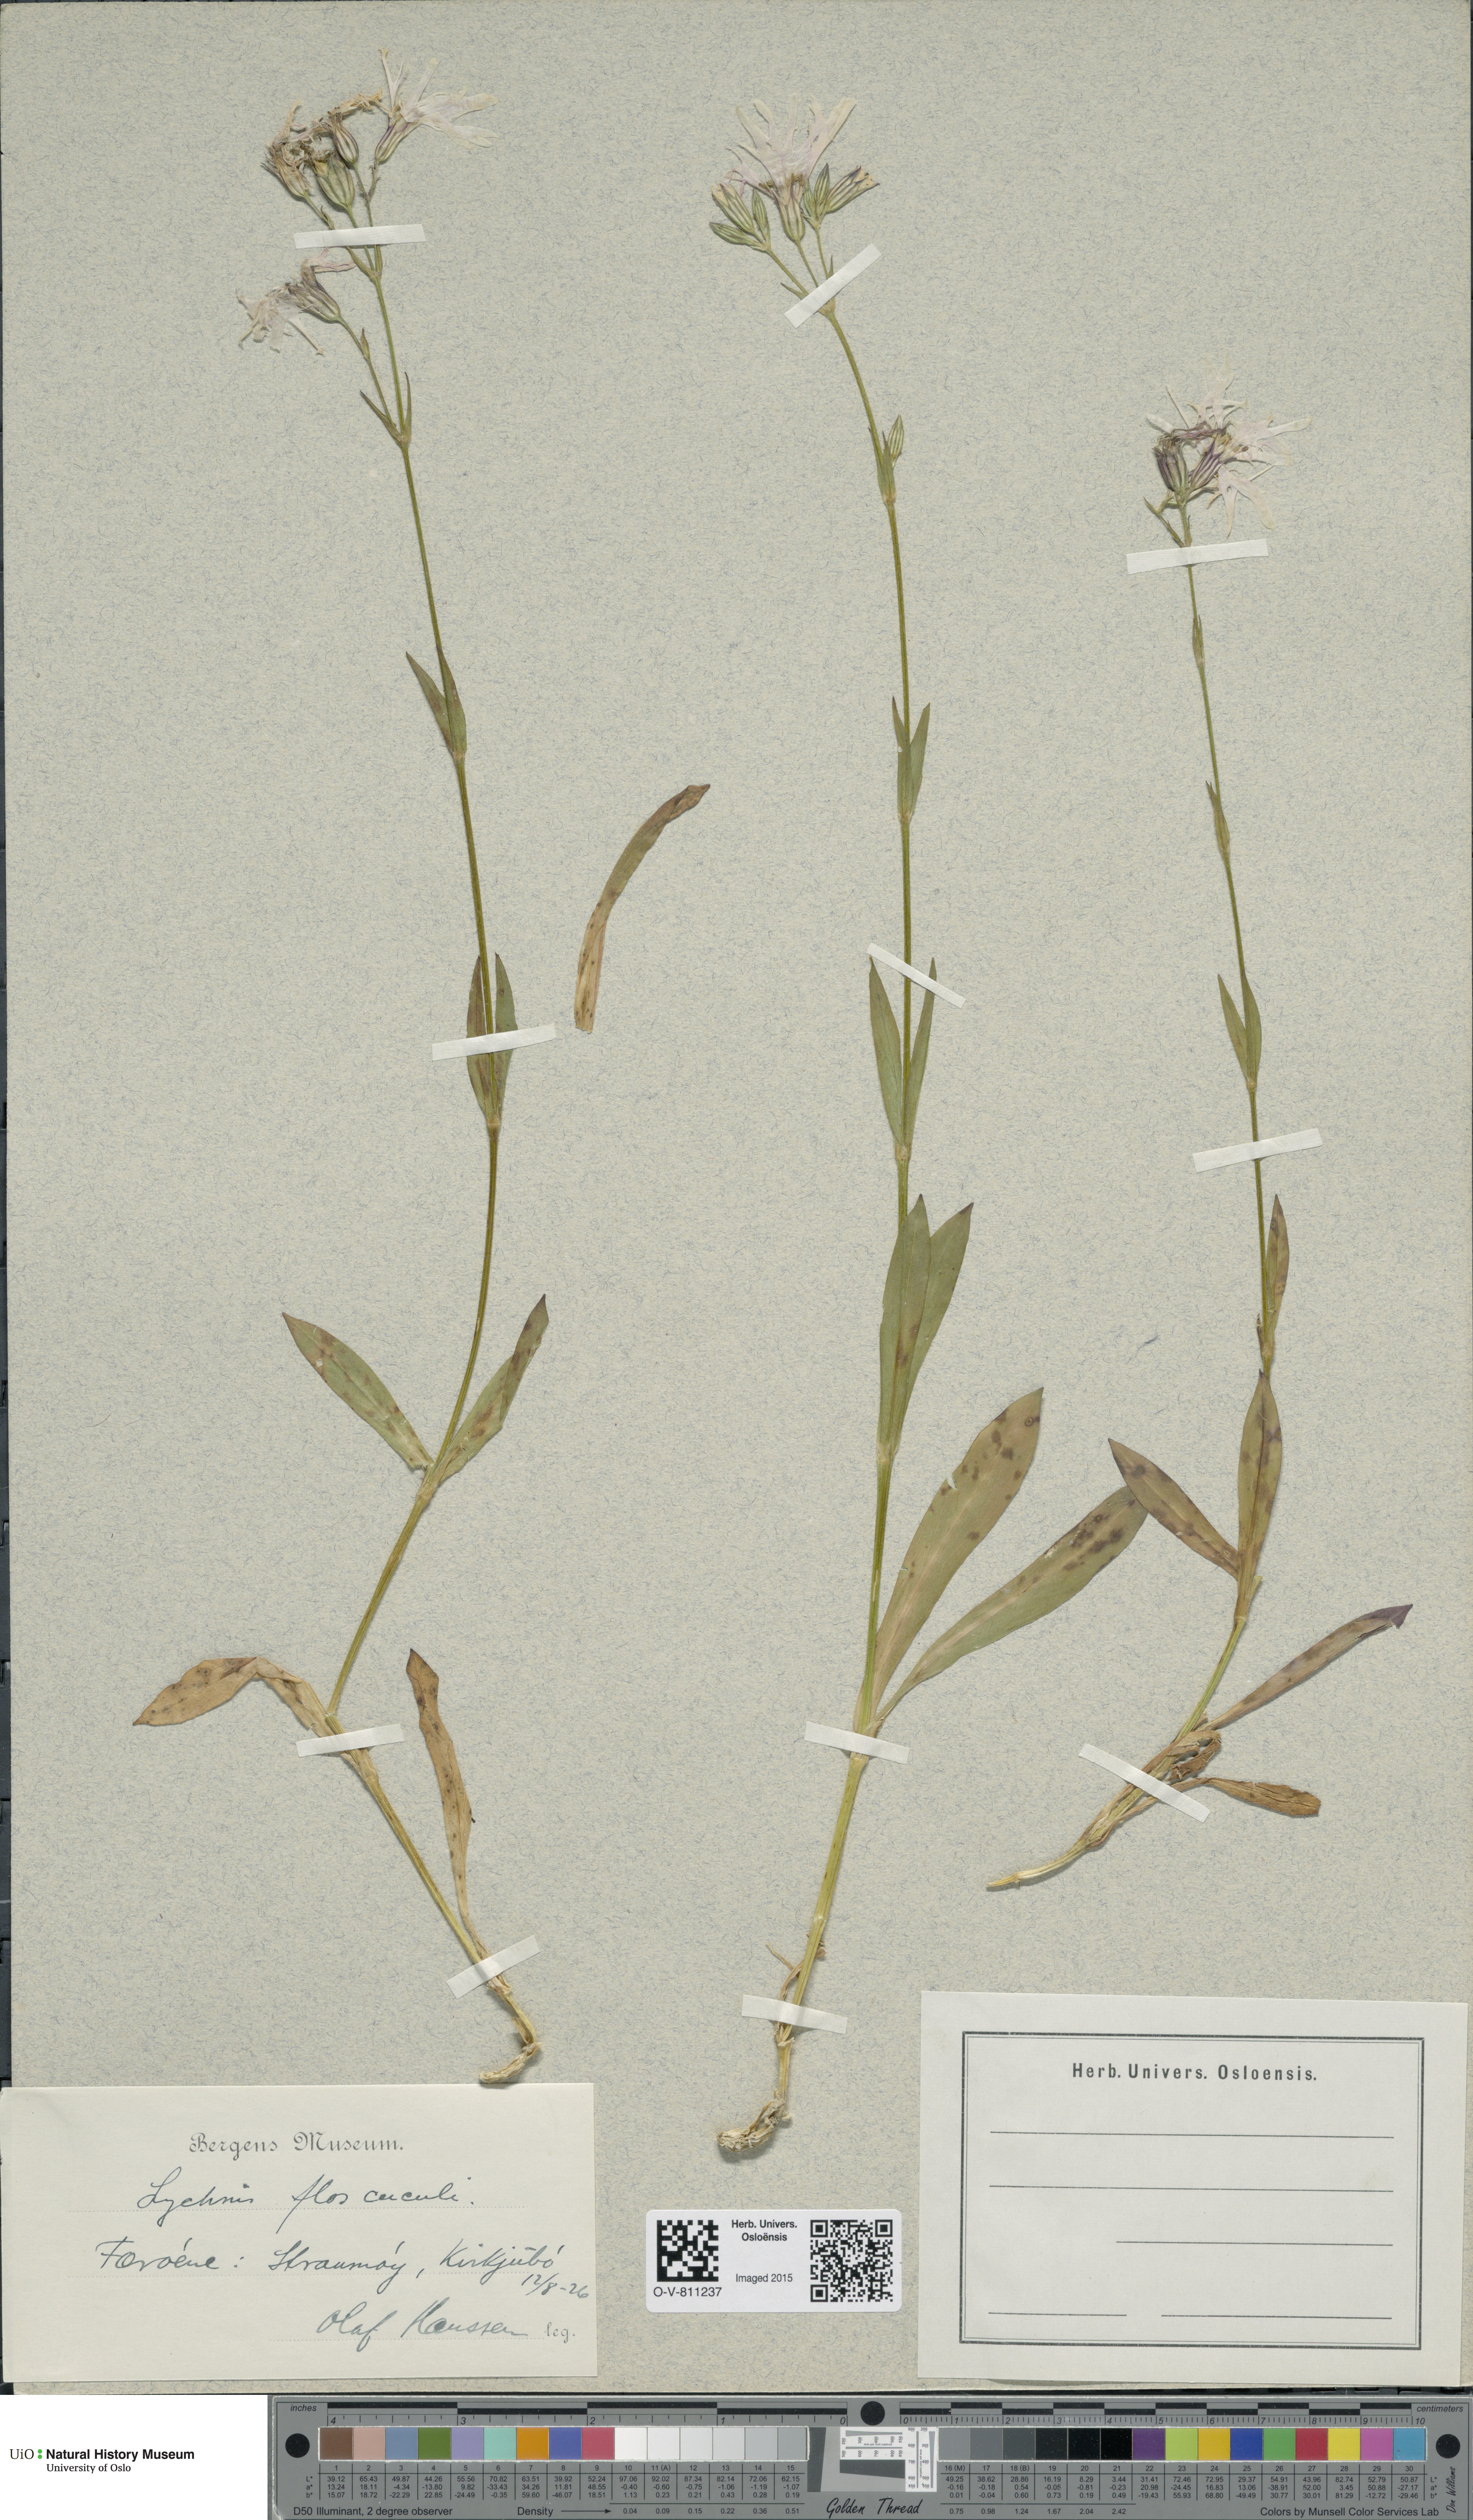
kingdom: Plantae
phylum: Tracheophyta
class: Magnoliopsida
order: Caryophyllales
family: Caryophyllaceae
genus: Silene
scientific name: Silene flos-cuculi
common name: Ragged-robin
